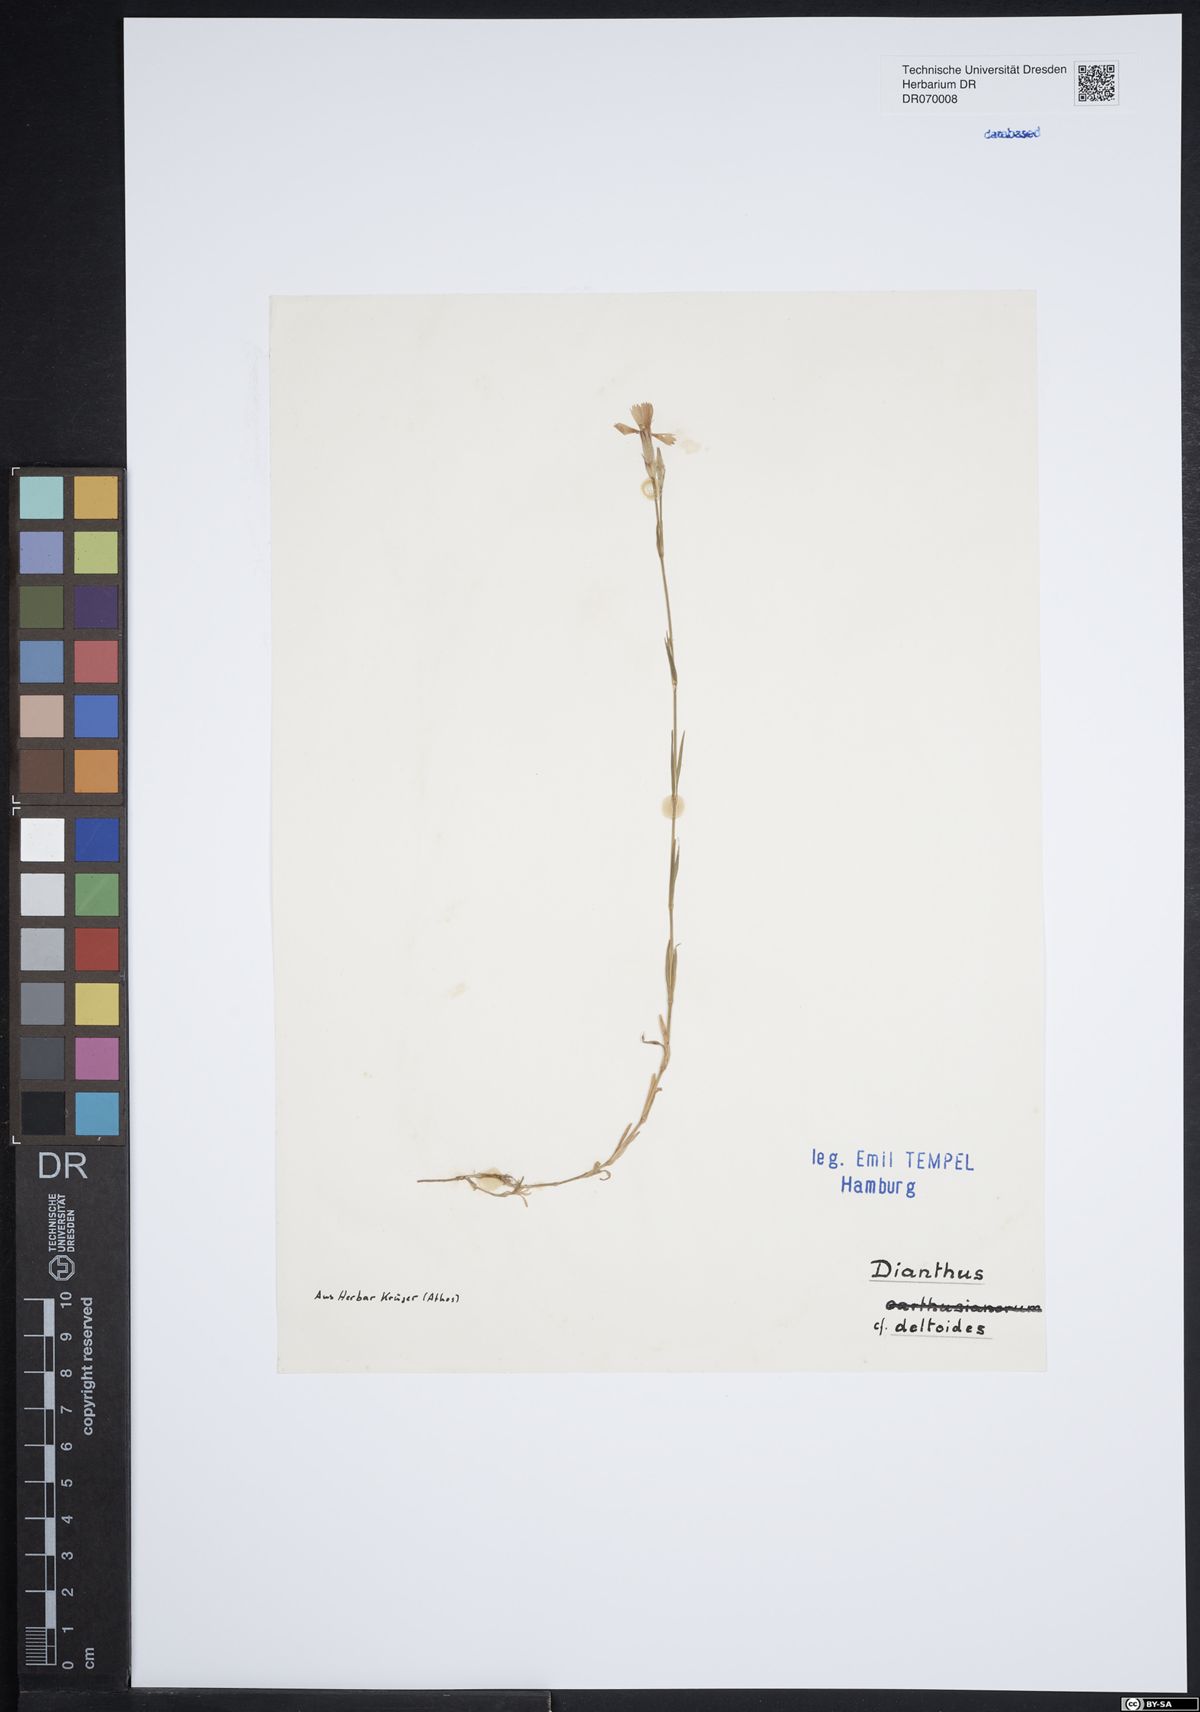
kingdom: Plantae
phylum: Tracheophyta
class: Magnoliopsida
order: Caryophyllales
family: Caryophyllaceae
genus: Dianthus
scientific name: Dianthus deltoides
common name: Maiden pink
